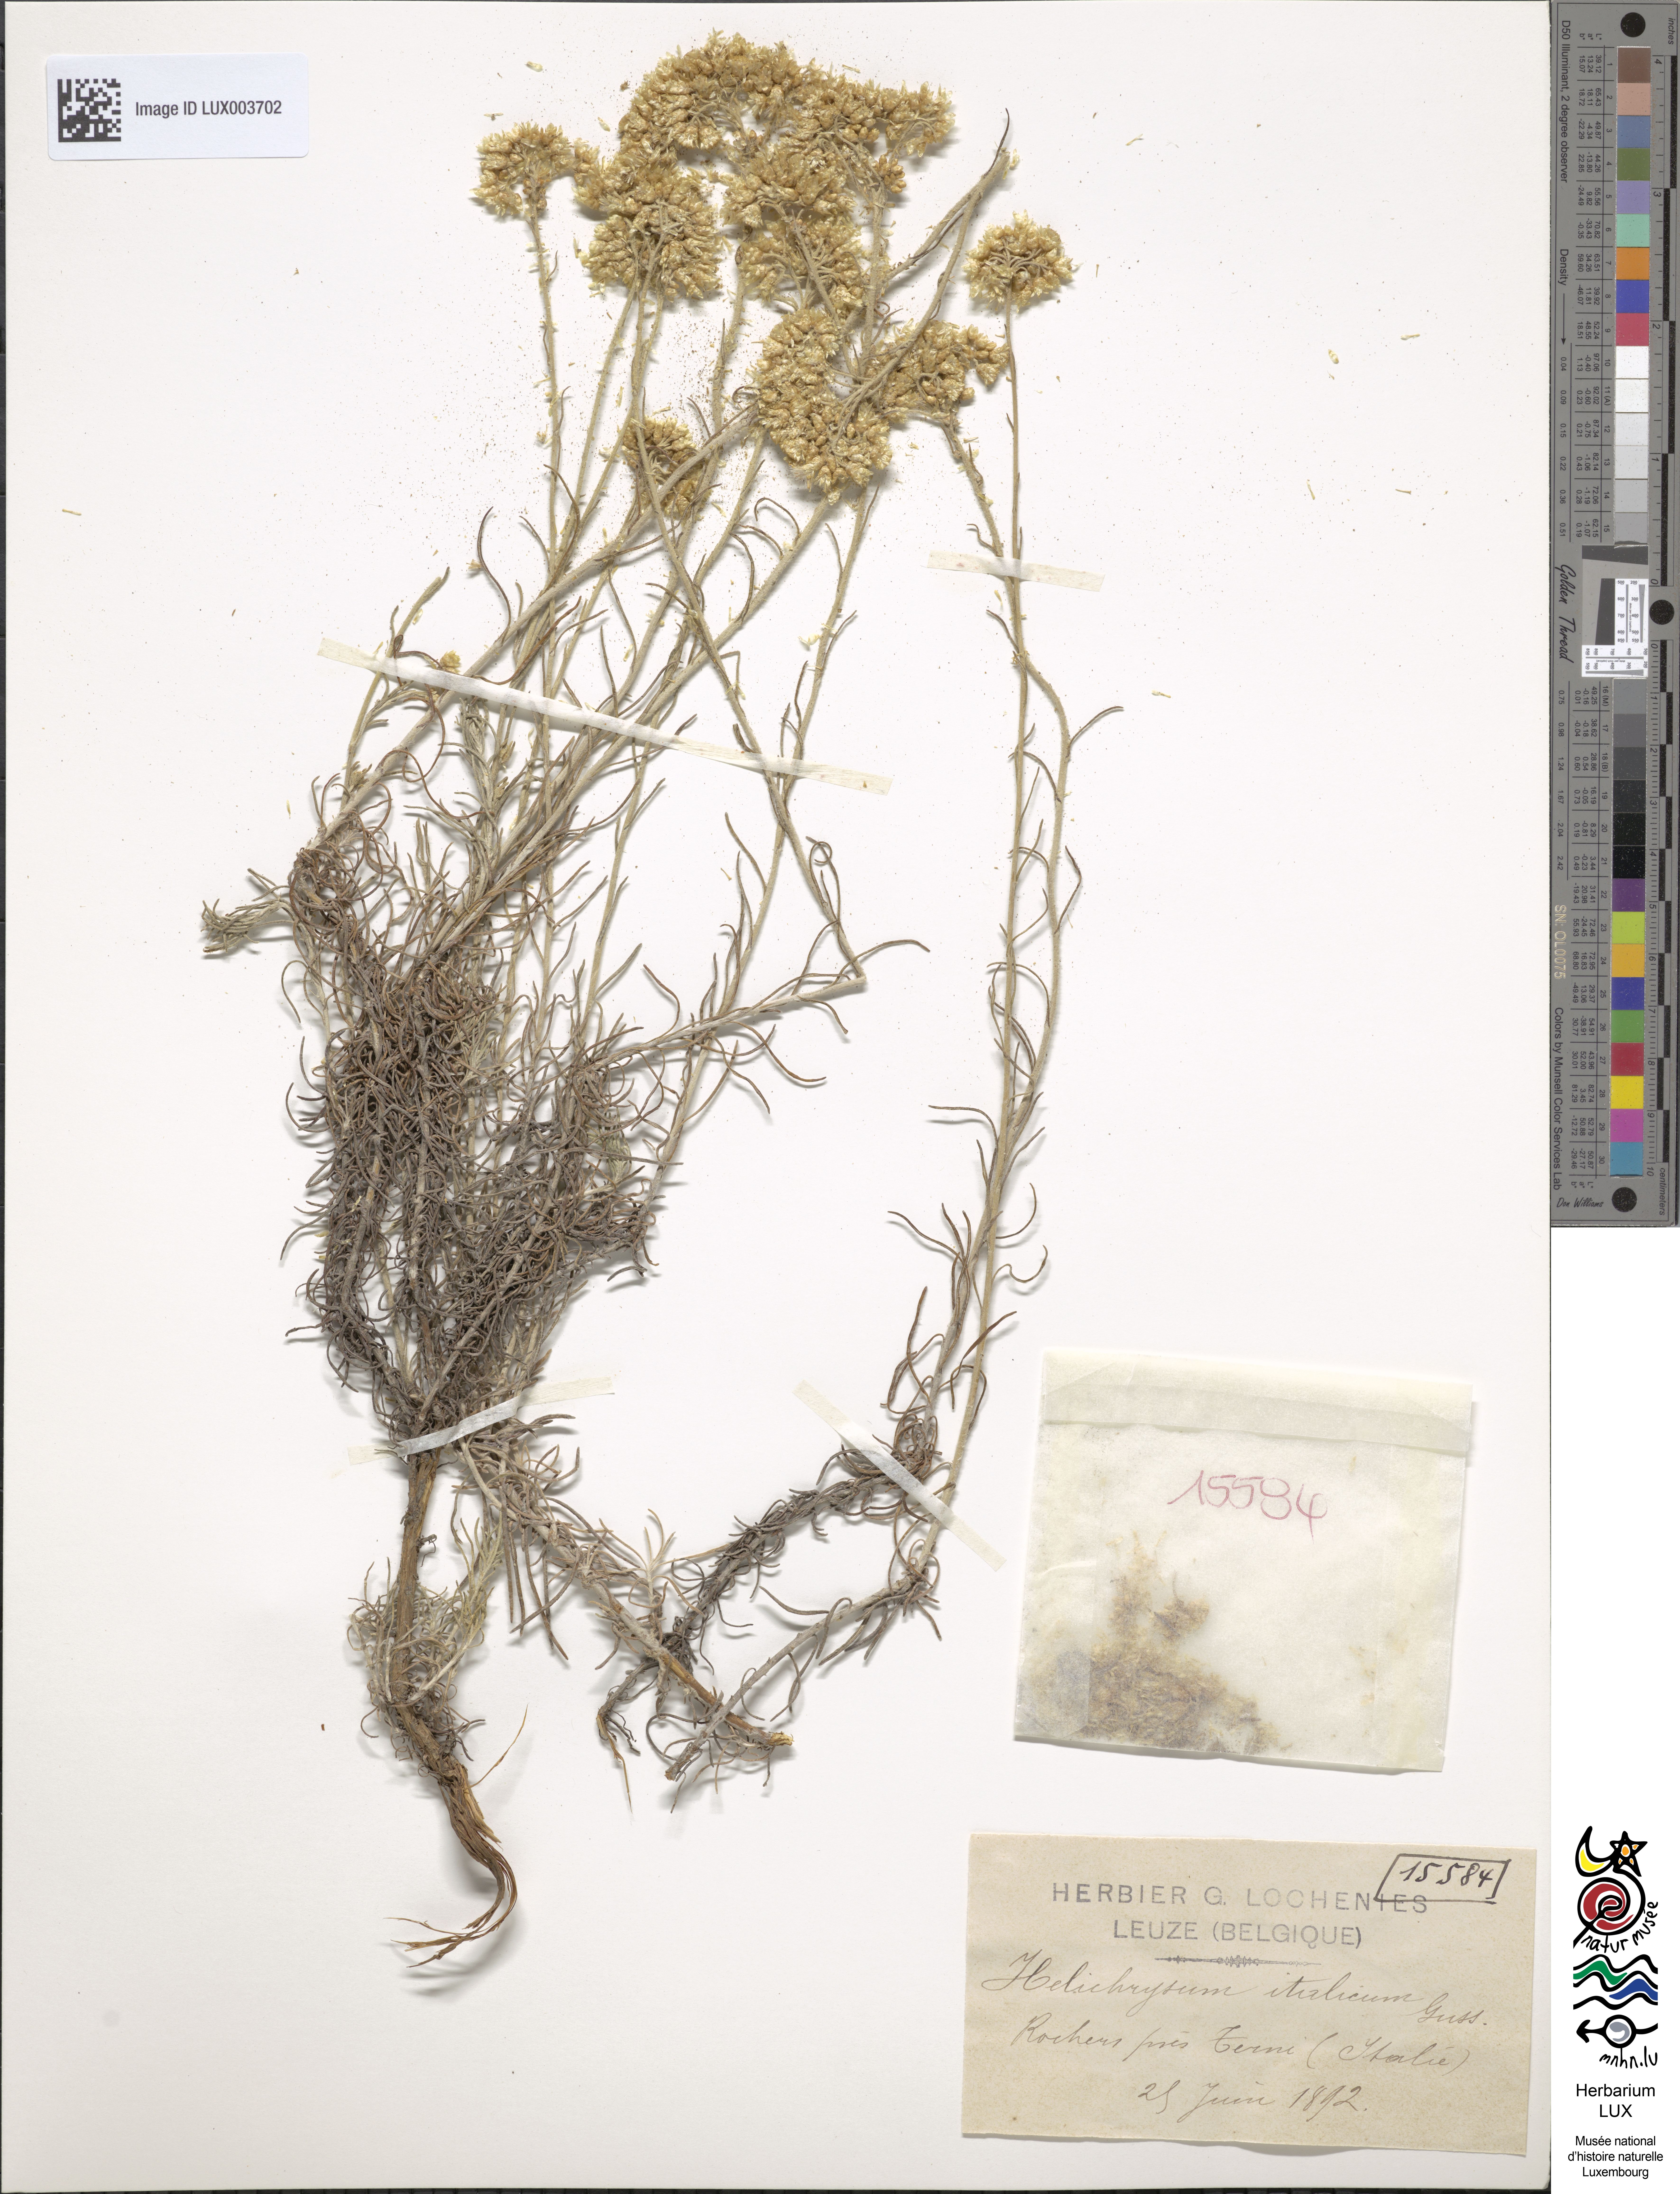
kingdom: Plantae
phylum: Tracheophyta
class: Magnoliopsida
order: Asterales
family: Asteraceae
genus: Helichrysum
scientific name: Helichrysum italicum
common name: Curryplant
